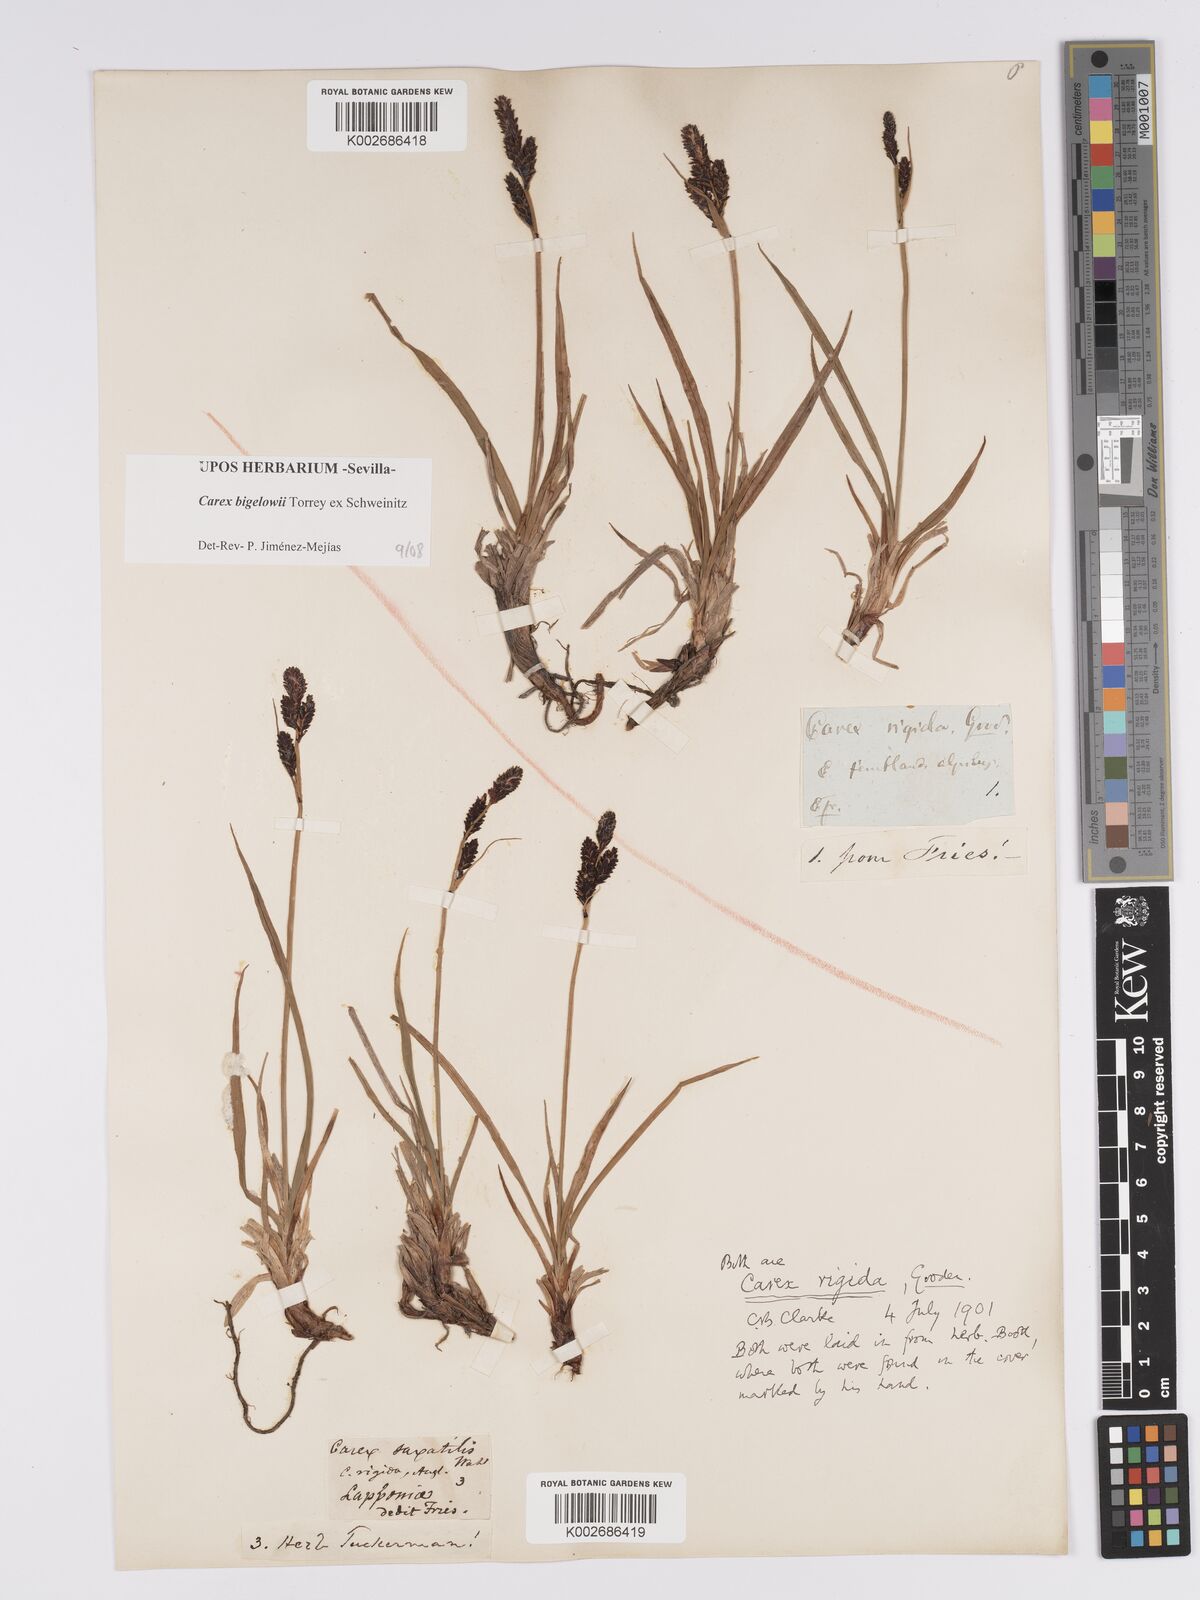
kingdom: Plantae
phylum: Tracheophyta
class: Liliopsida
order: Poales
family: Cyperaceae
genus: Carex
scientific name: Carex bigelowii
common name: Stiff sedge
